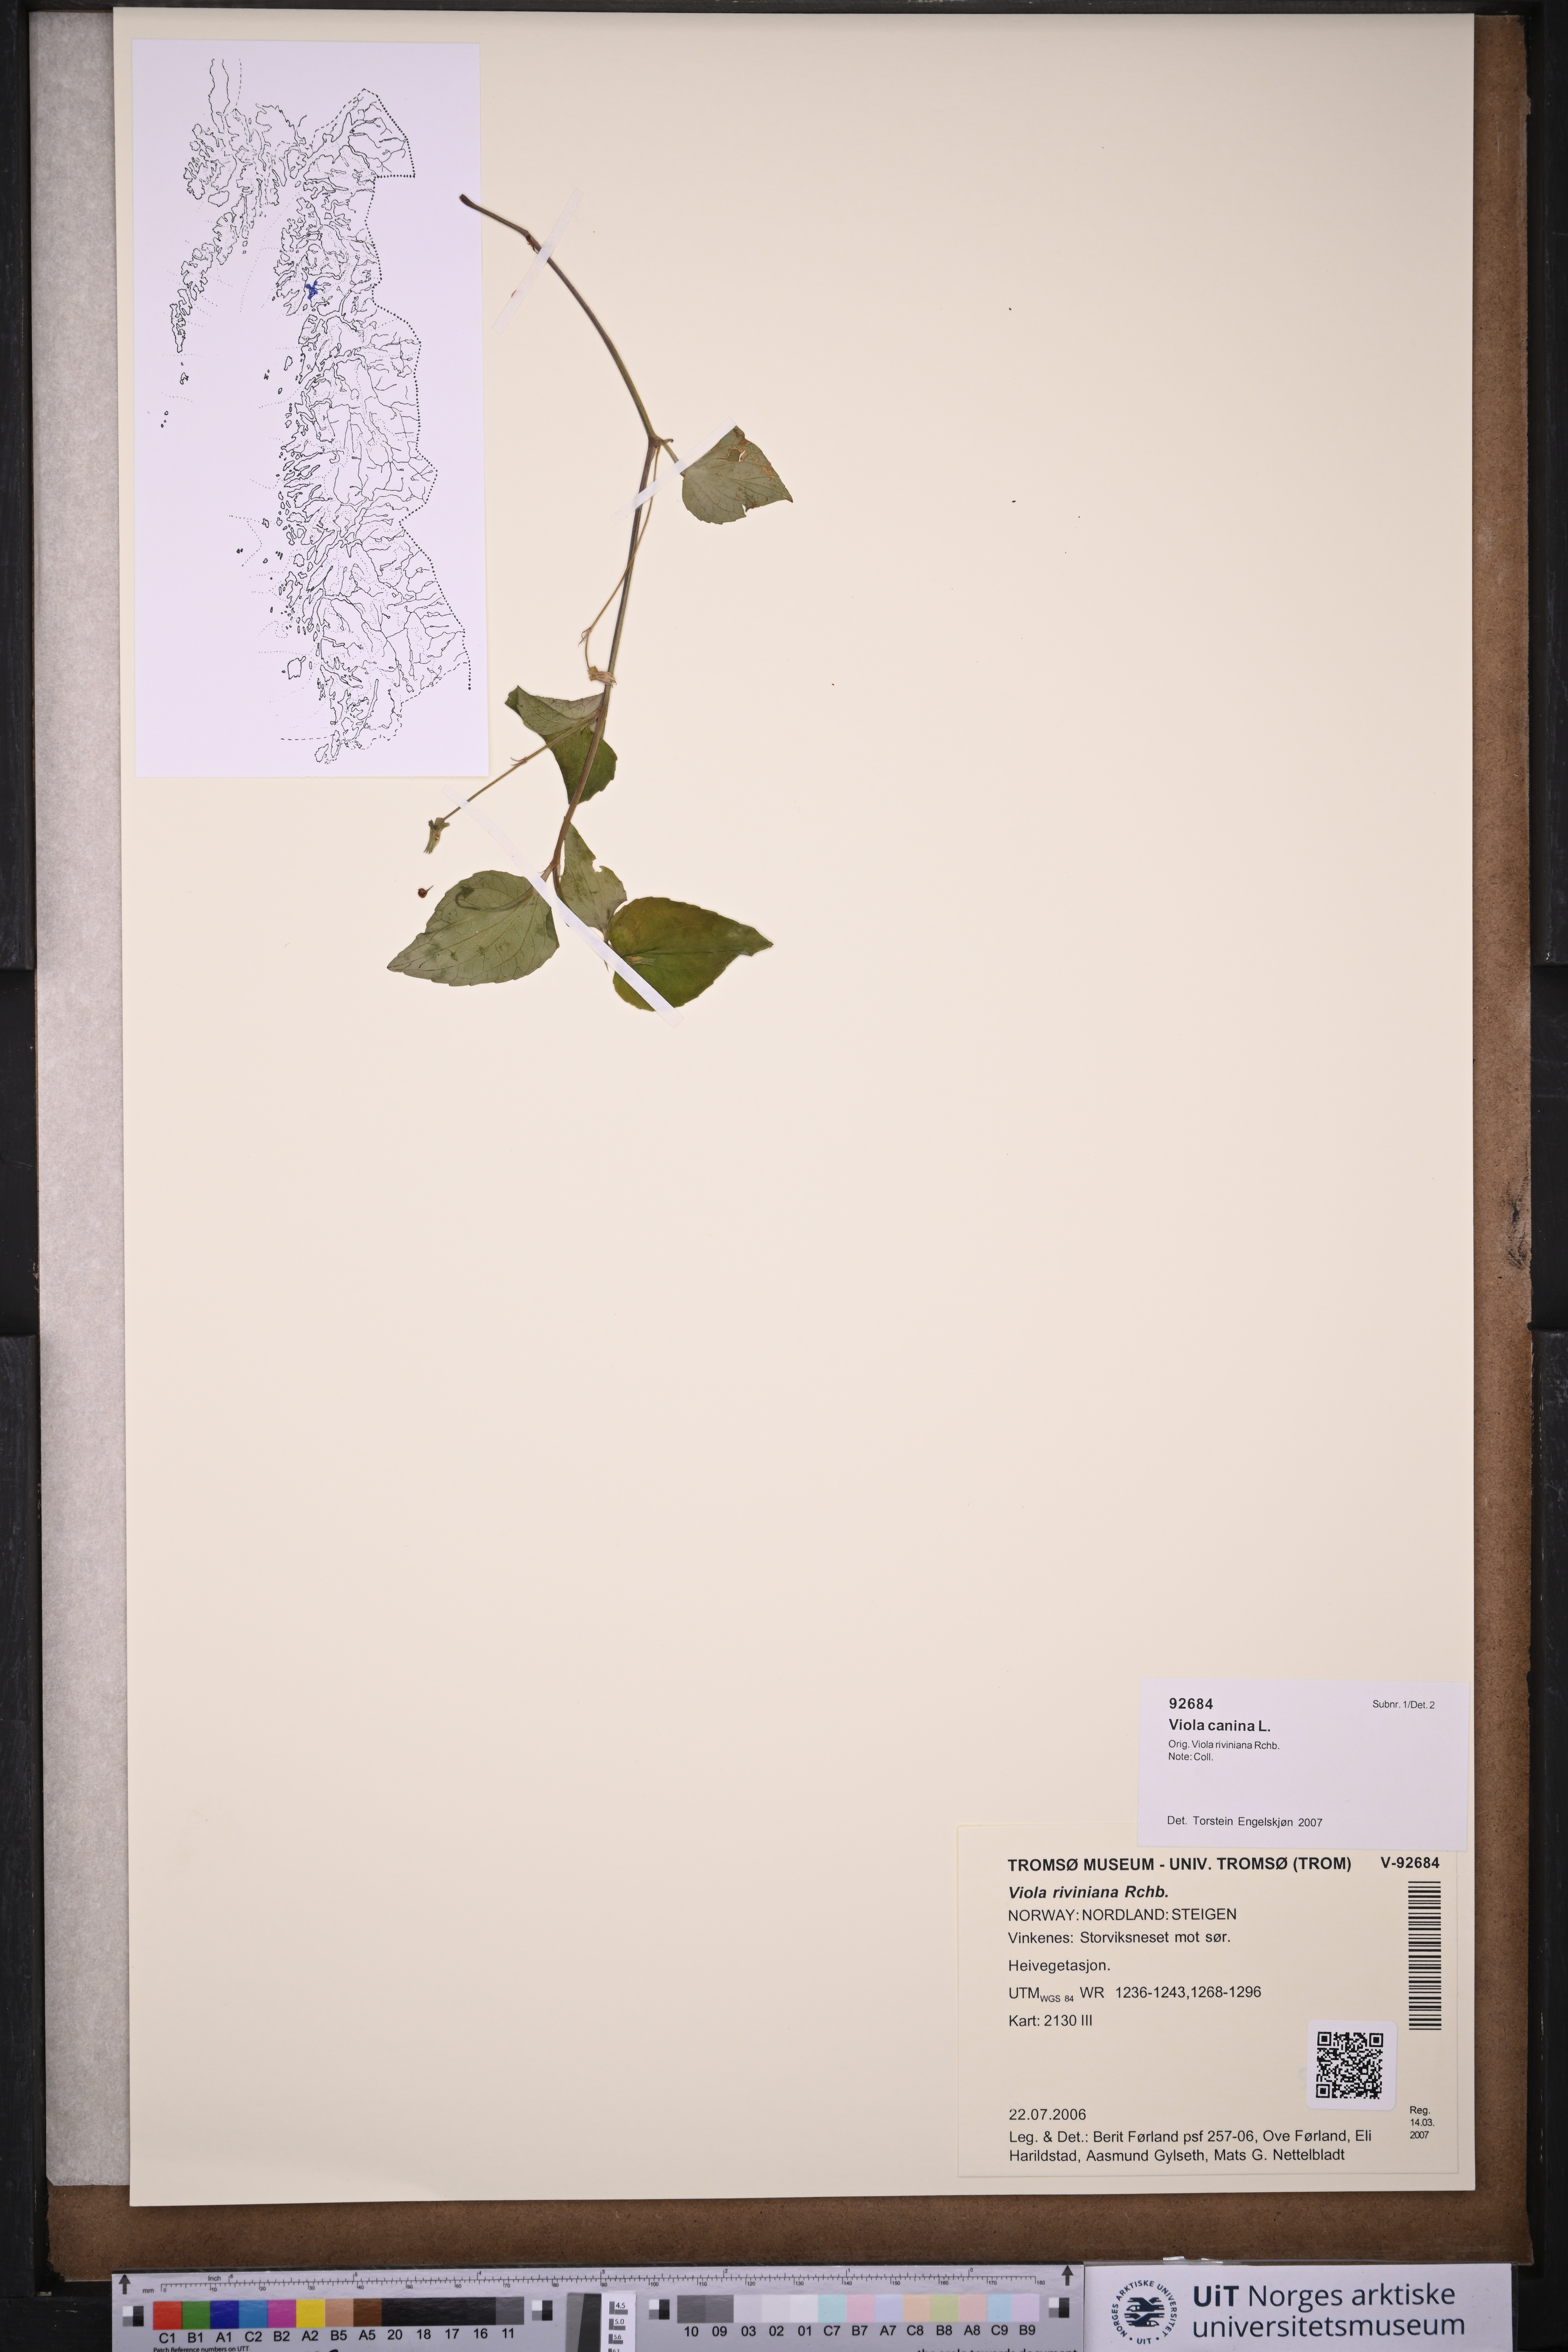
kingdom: Plantae
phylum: Tracheophyta
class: Magnoliopsida
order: Malpighiales
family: Violaceae
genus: Viola
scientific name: Viola canina
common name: Heath dog-violet
